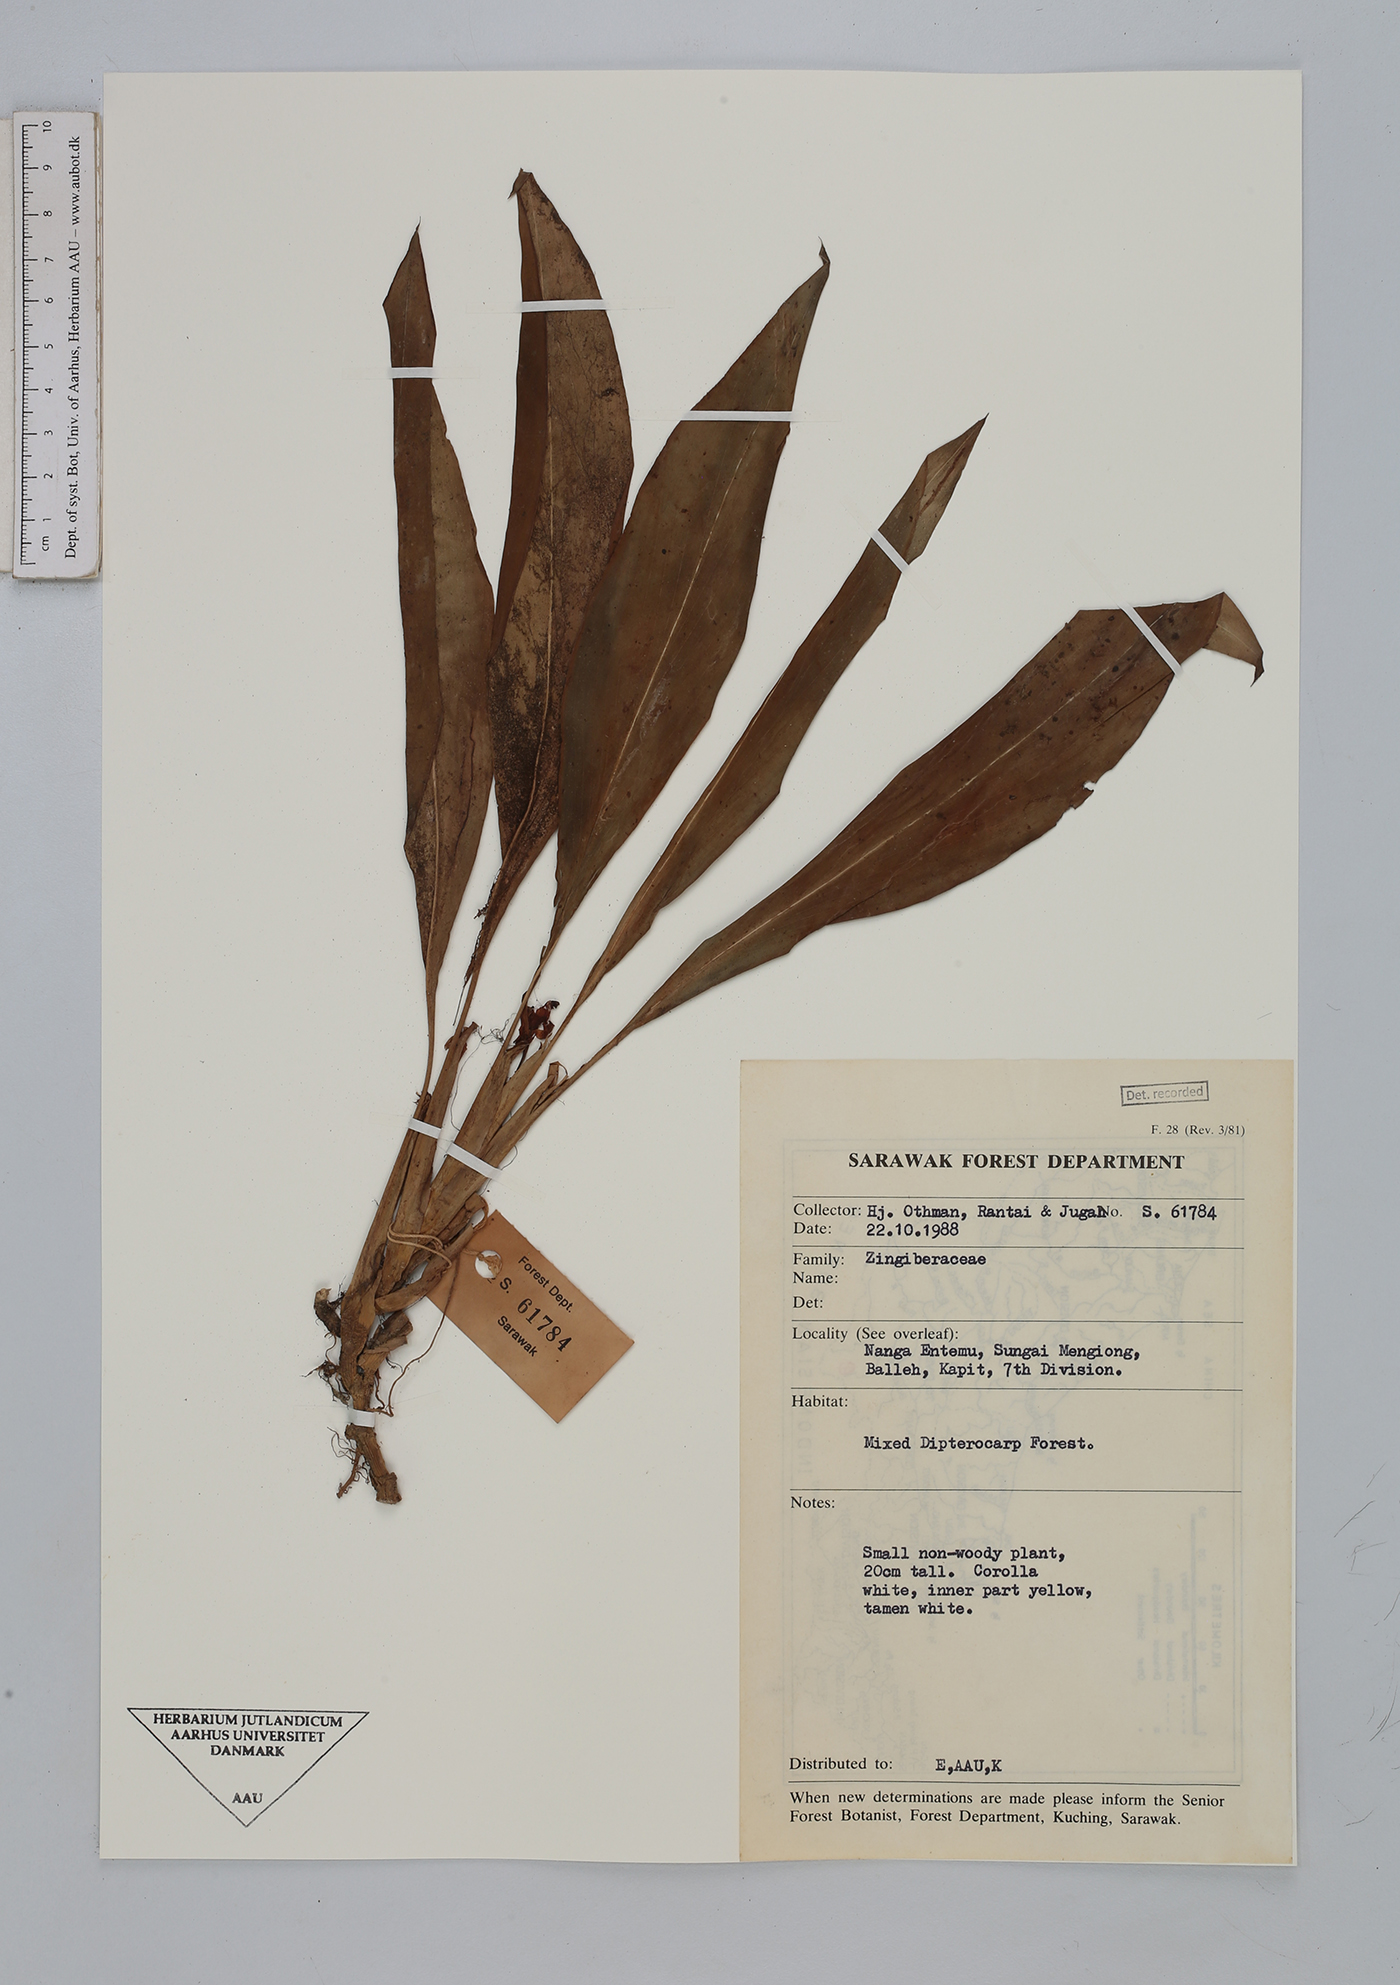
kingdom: Plantae
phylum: Tracheophyta
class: Liliopsida
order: Zingiberales
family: Zingiberaceae
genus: Boesenbergia
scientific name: Boesenbergia
